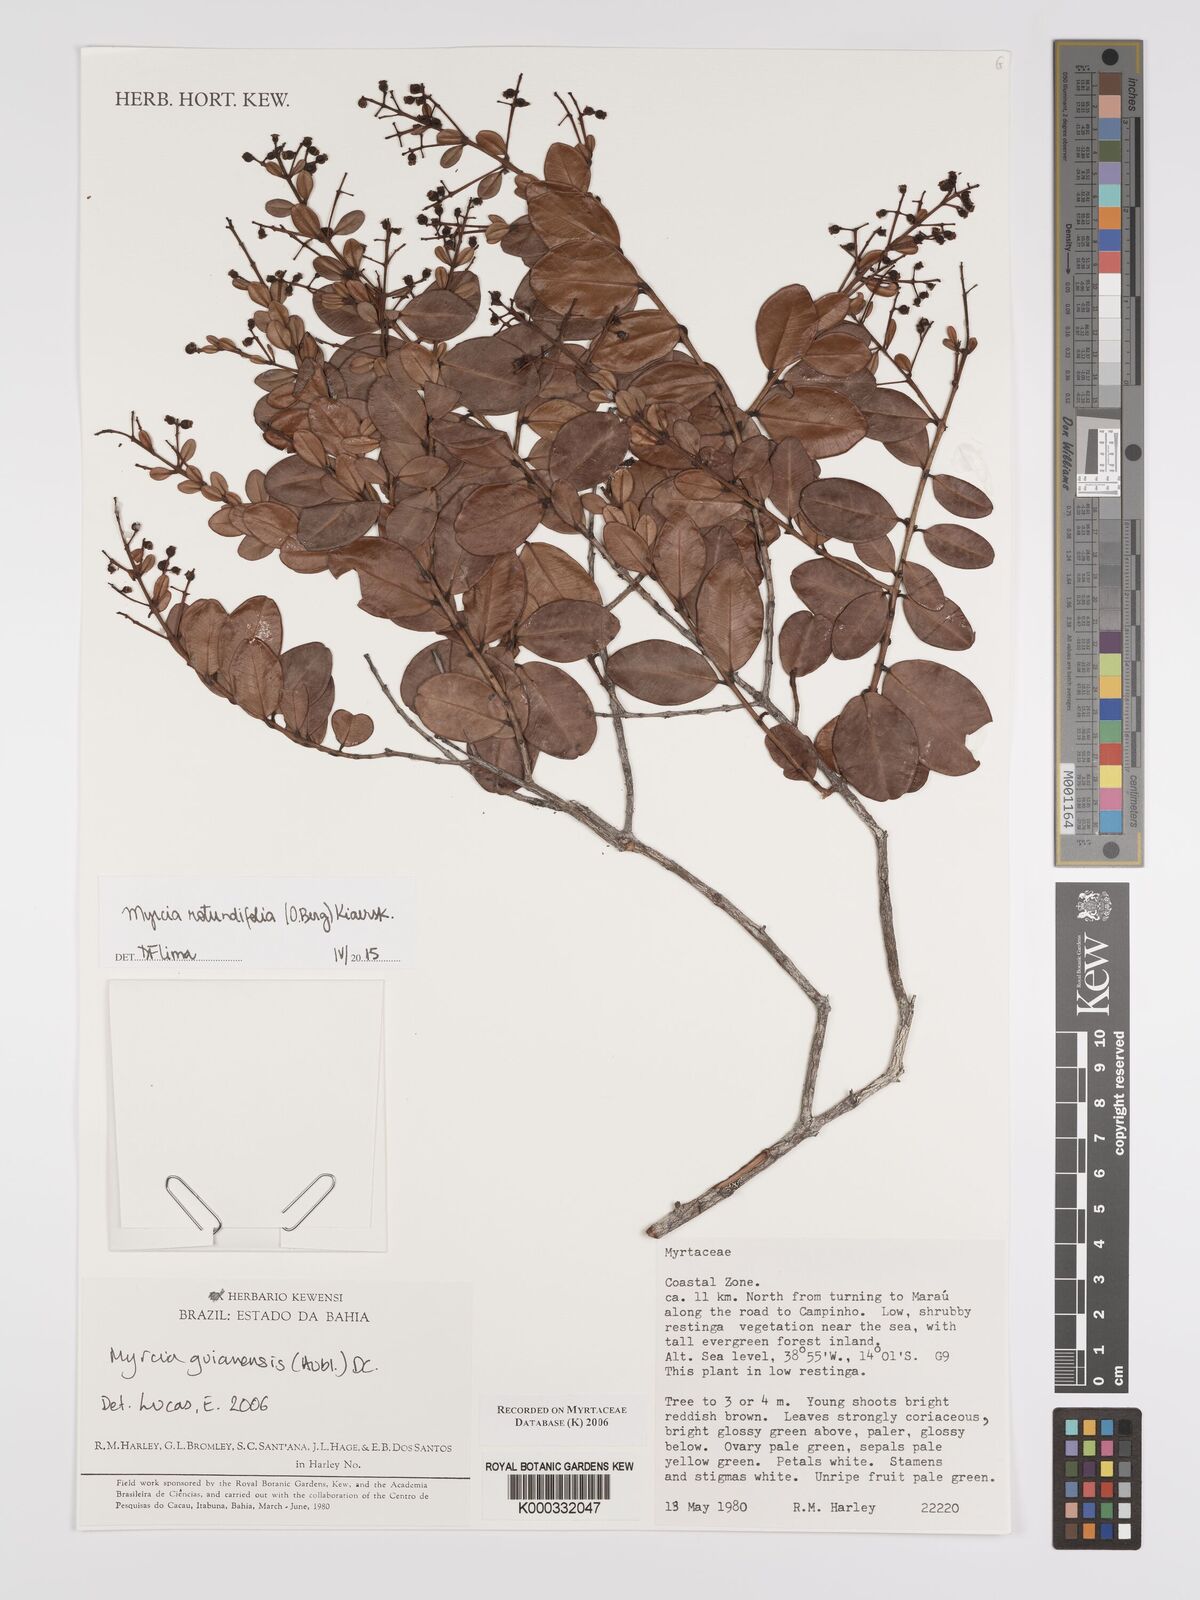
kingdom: Plantae
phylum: Tracheophyta
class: Magnoliopsida
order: Myrtales
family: Myrtaceae
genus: Myrcia
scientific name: Myrcia guianensis
